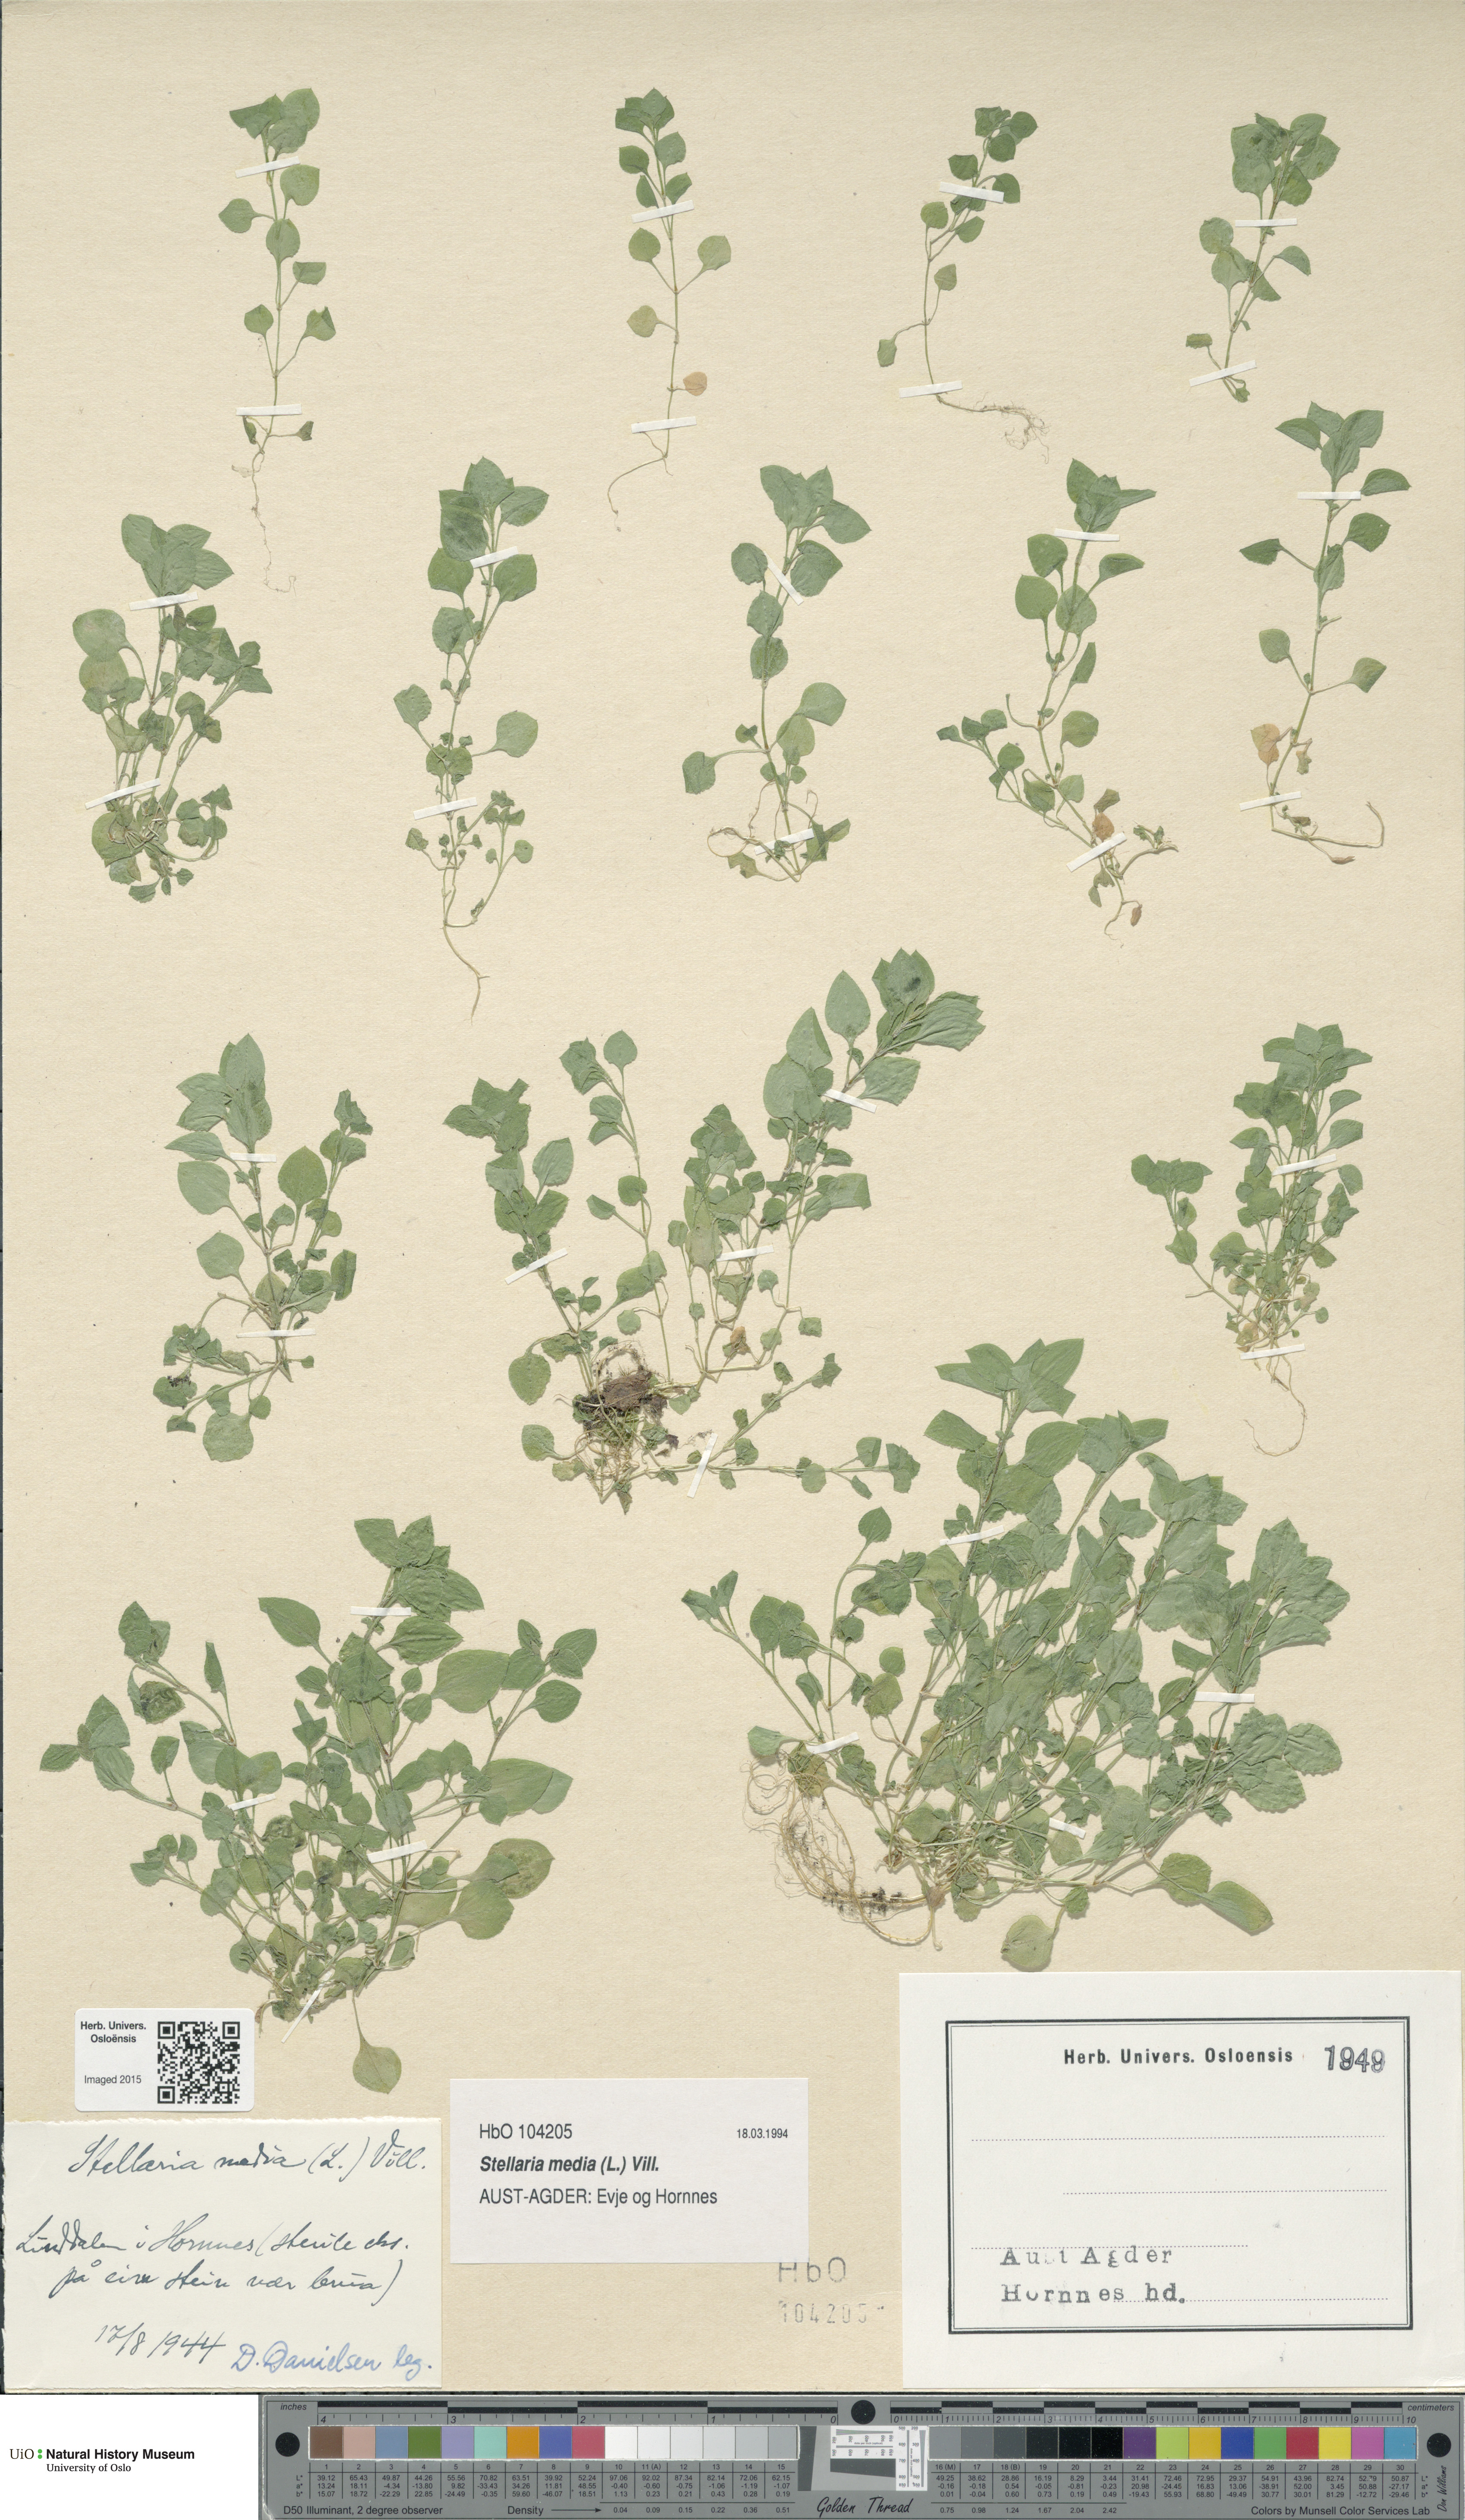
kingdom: Plantae
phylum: Tracheophyta
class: Magnoliopsida
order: Caryophyllales
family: Caryophyllaceae
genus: Stellaria
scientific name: Stellaria media
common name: Common chickweed
